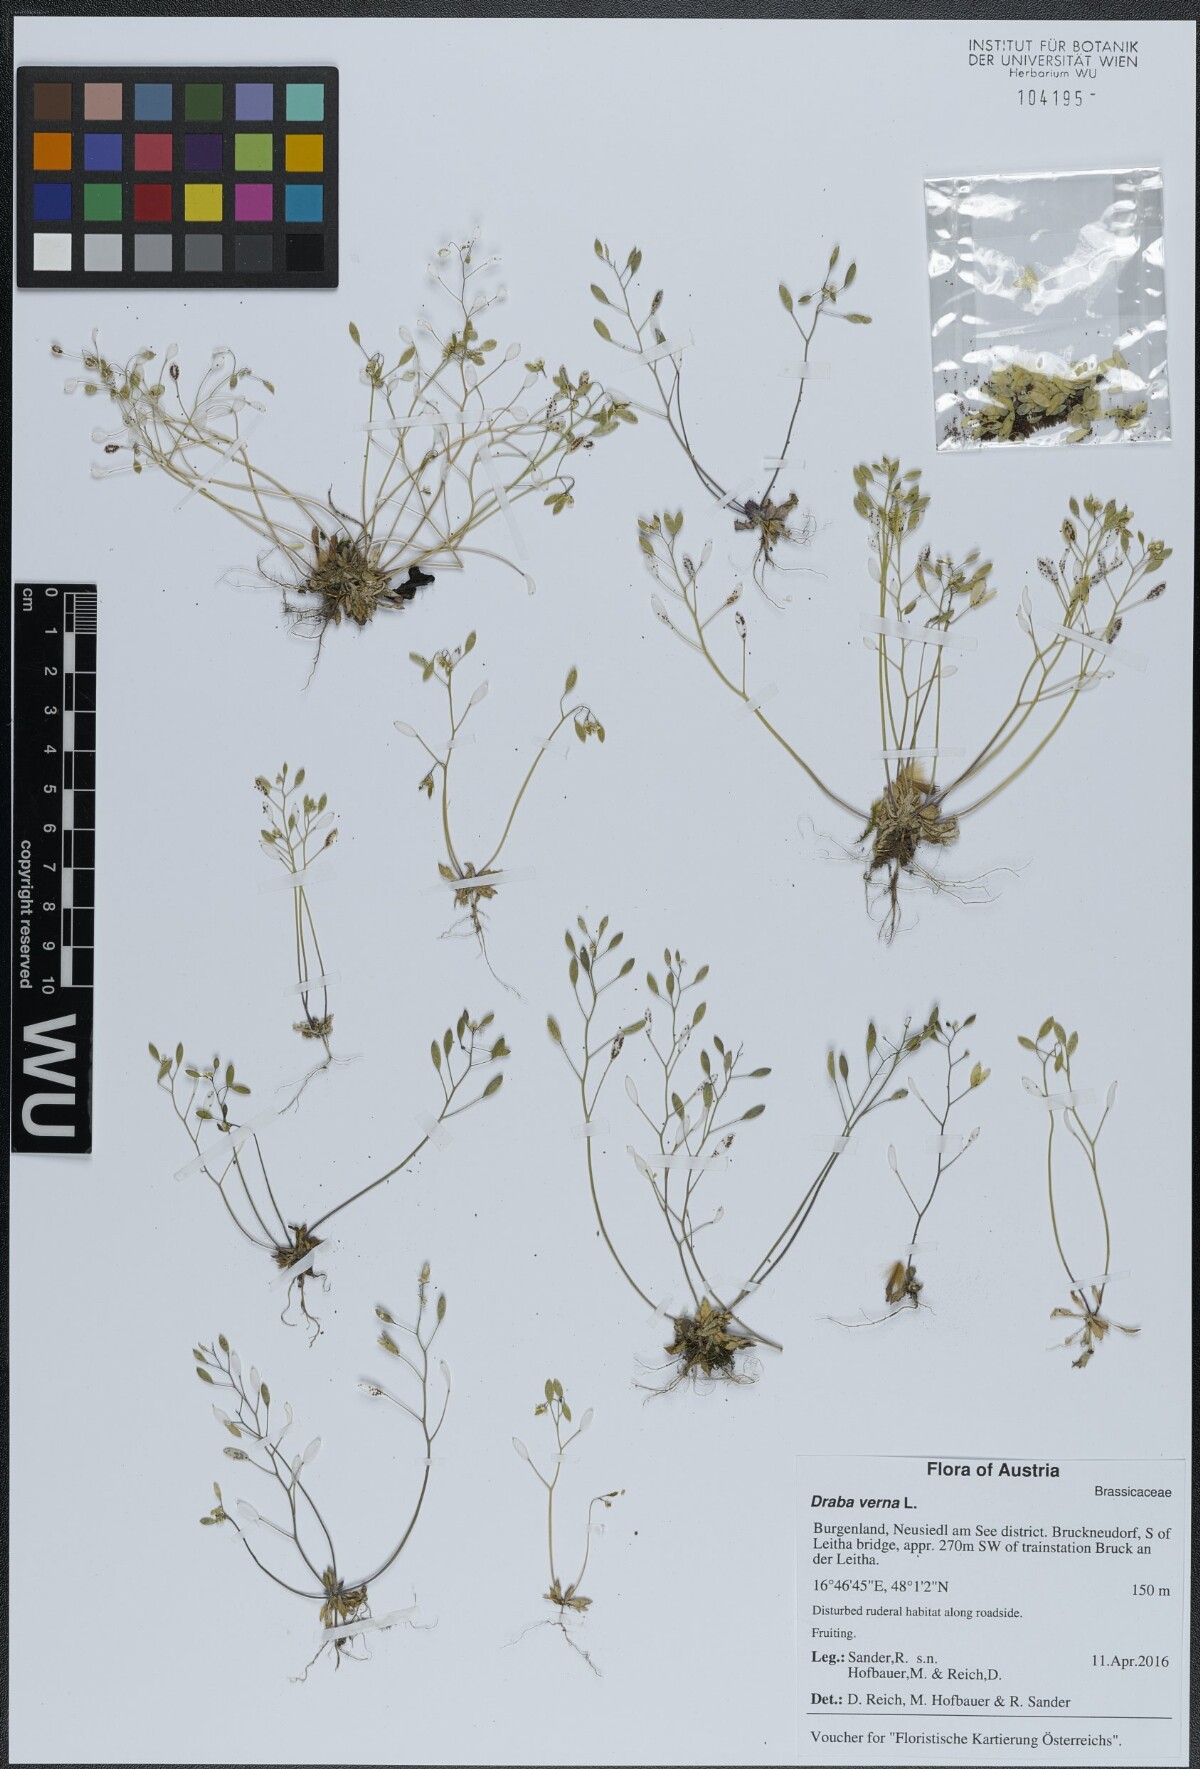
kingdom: Plantae
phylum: Tracheophyta
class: Magnoliopsida
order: Brassicales
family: Brassicaceae
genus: Draba
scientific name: Draba verna
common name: Spring draba
